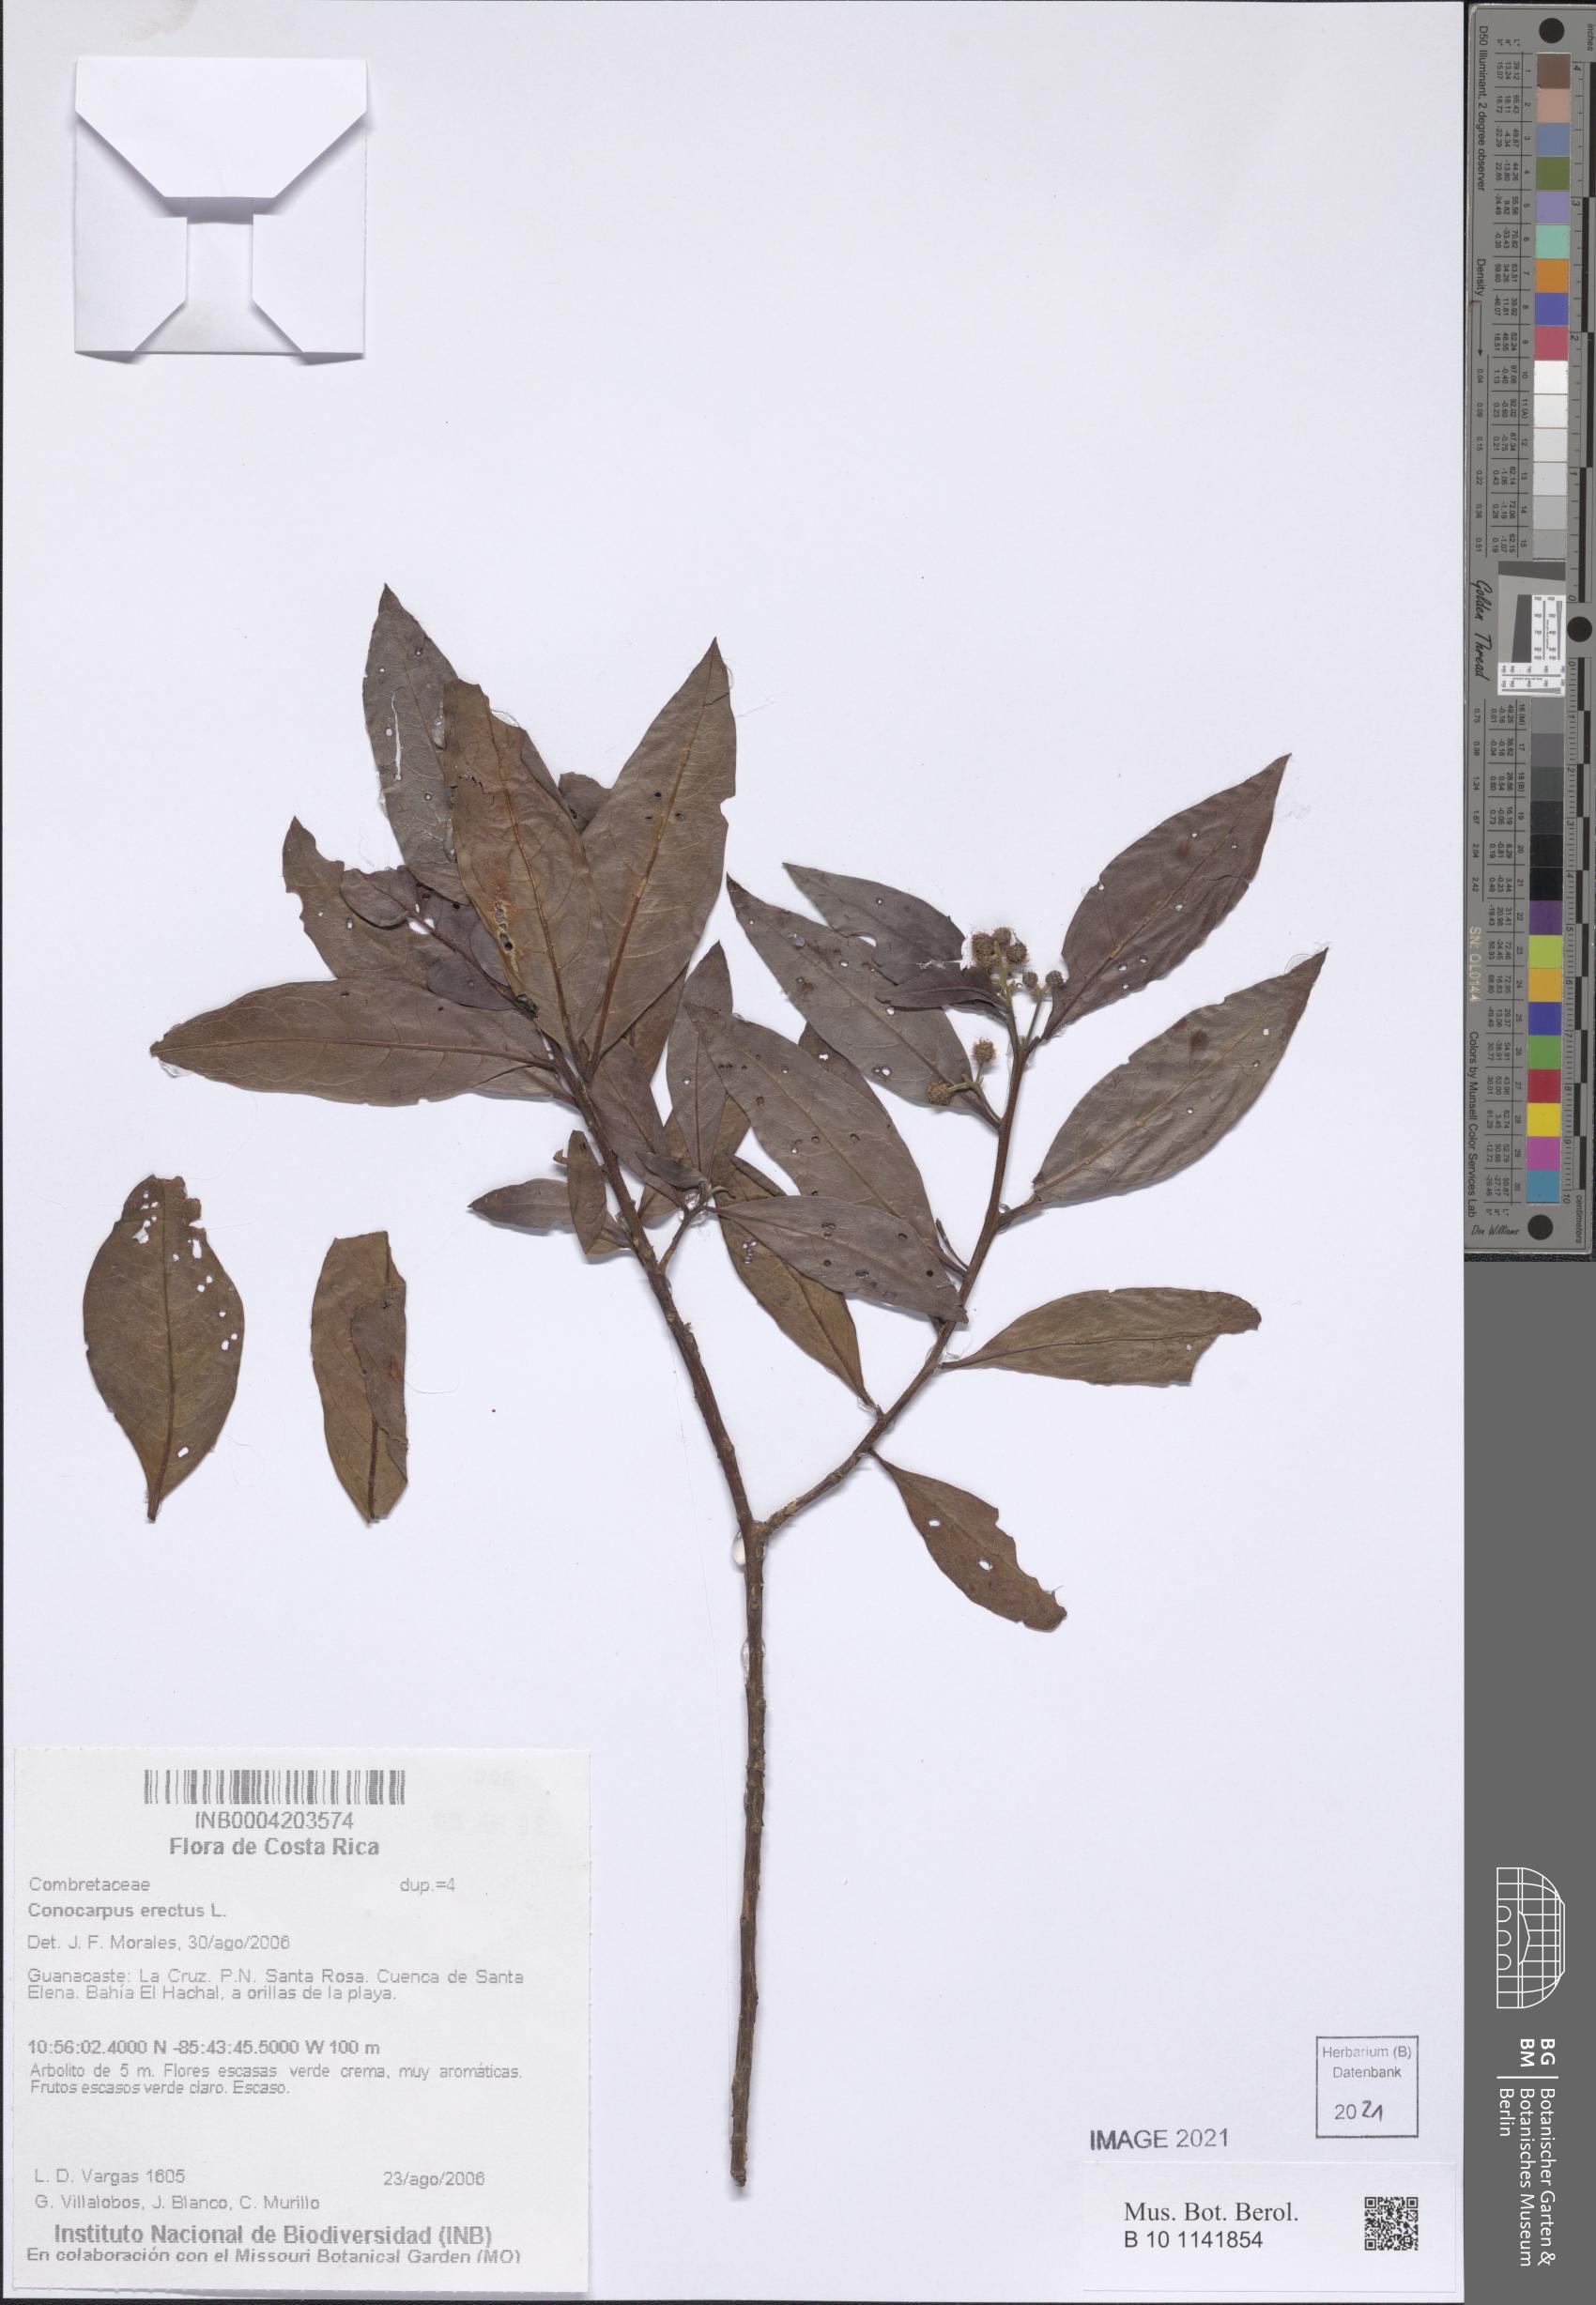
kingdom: Plantae
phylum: Tracheophyta
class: Magnoliopsida
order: Myrtales
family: Combretaceae
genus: Conocarpus
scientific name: Conocarpus erectus
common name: Button mangrove
